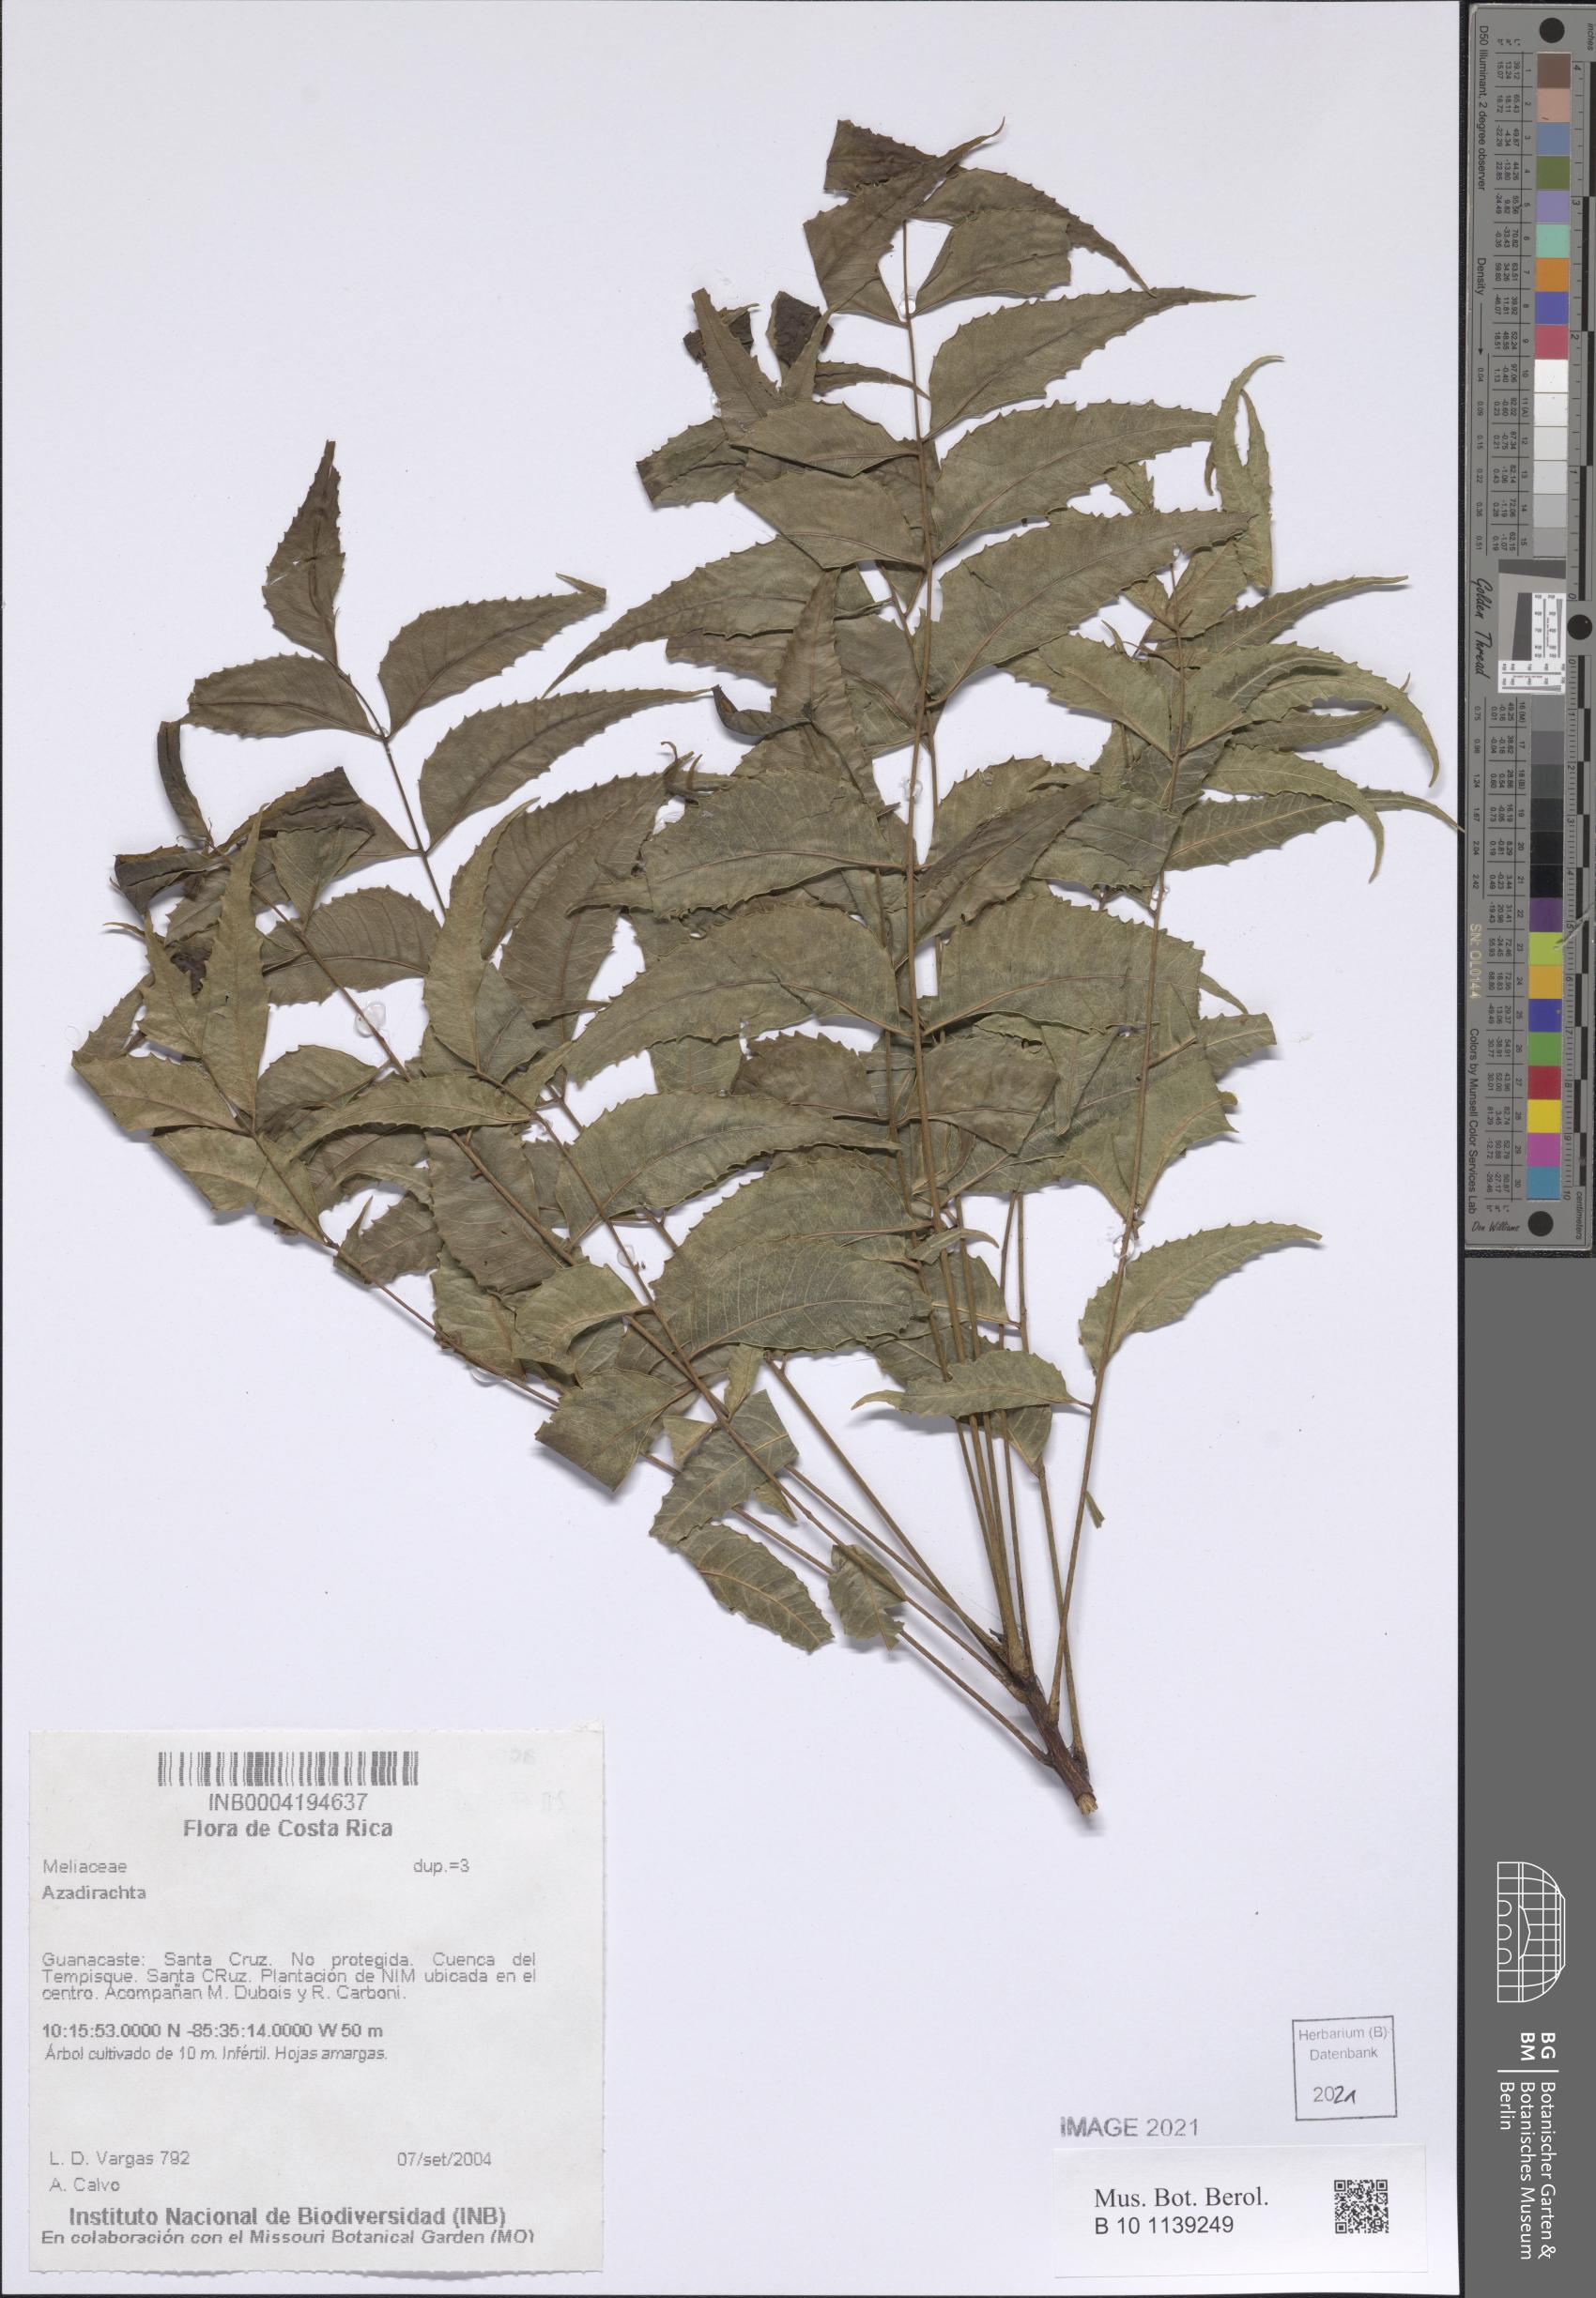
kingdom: Plantae
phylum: Tracheophyta
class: Magnoliopsida
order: Sapindales
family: Meliaceae
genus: Azadirachta
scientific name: Azadirachta
